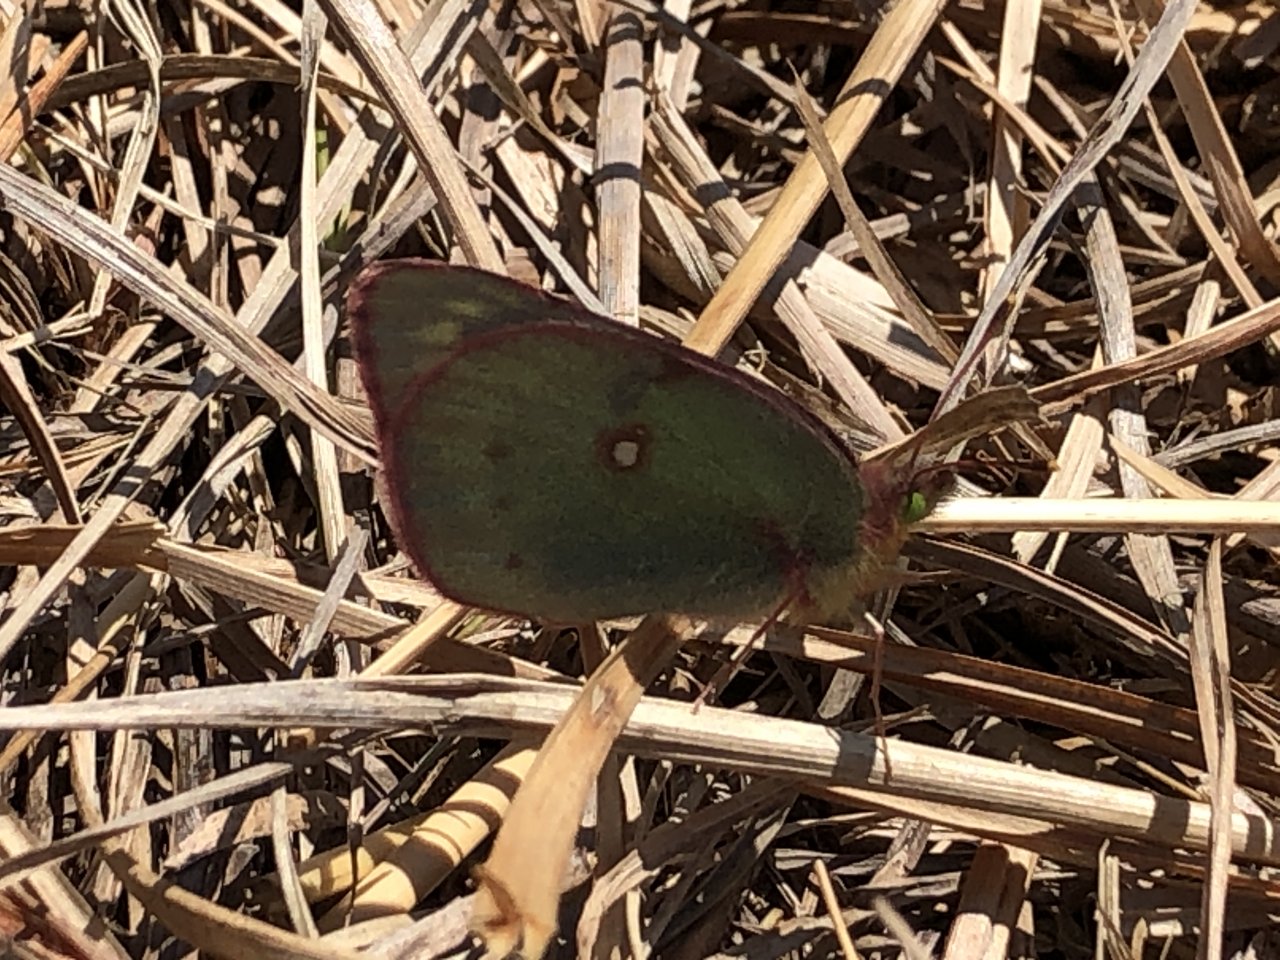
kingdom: Animalia
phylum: Arthropoda
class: Insecta
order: Lepidoptera
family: Pieridae
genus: Colias
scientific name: Colias eurytheme
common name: Orange Sulphur
